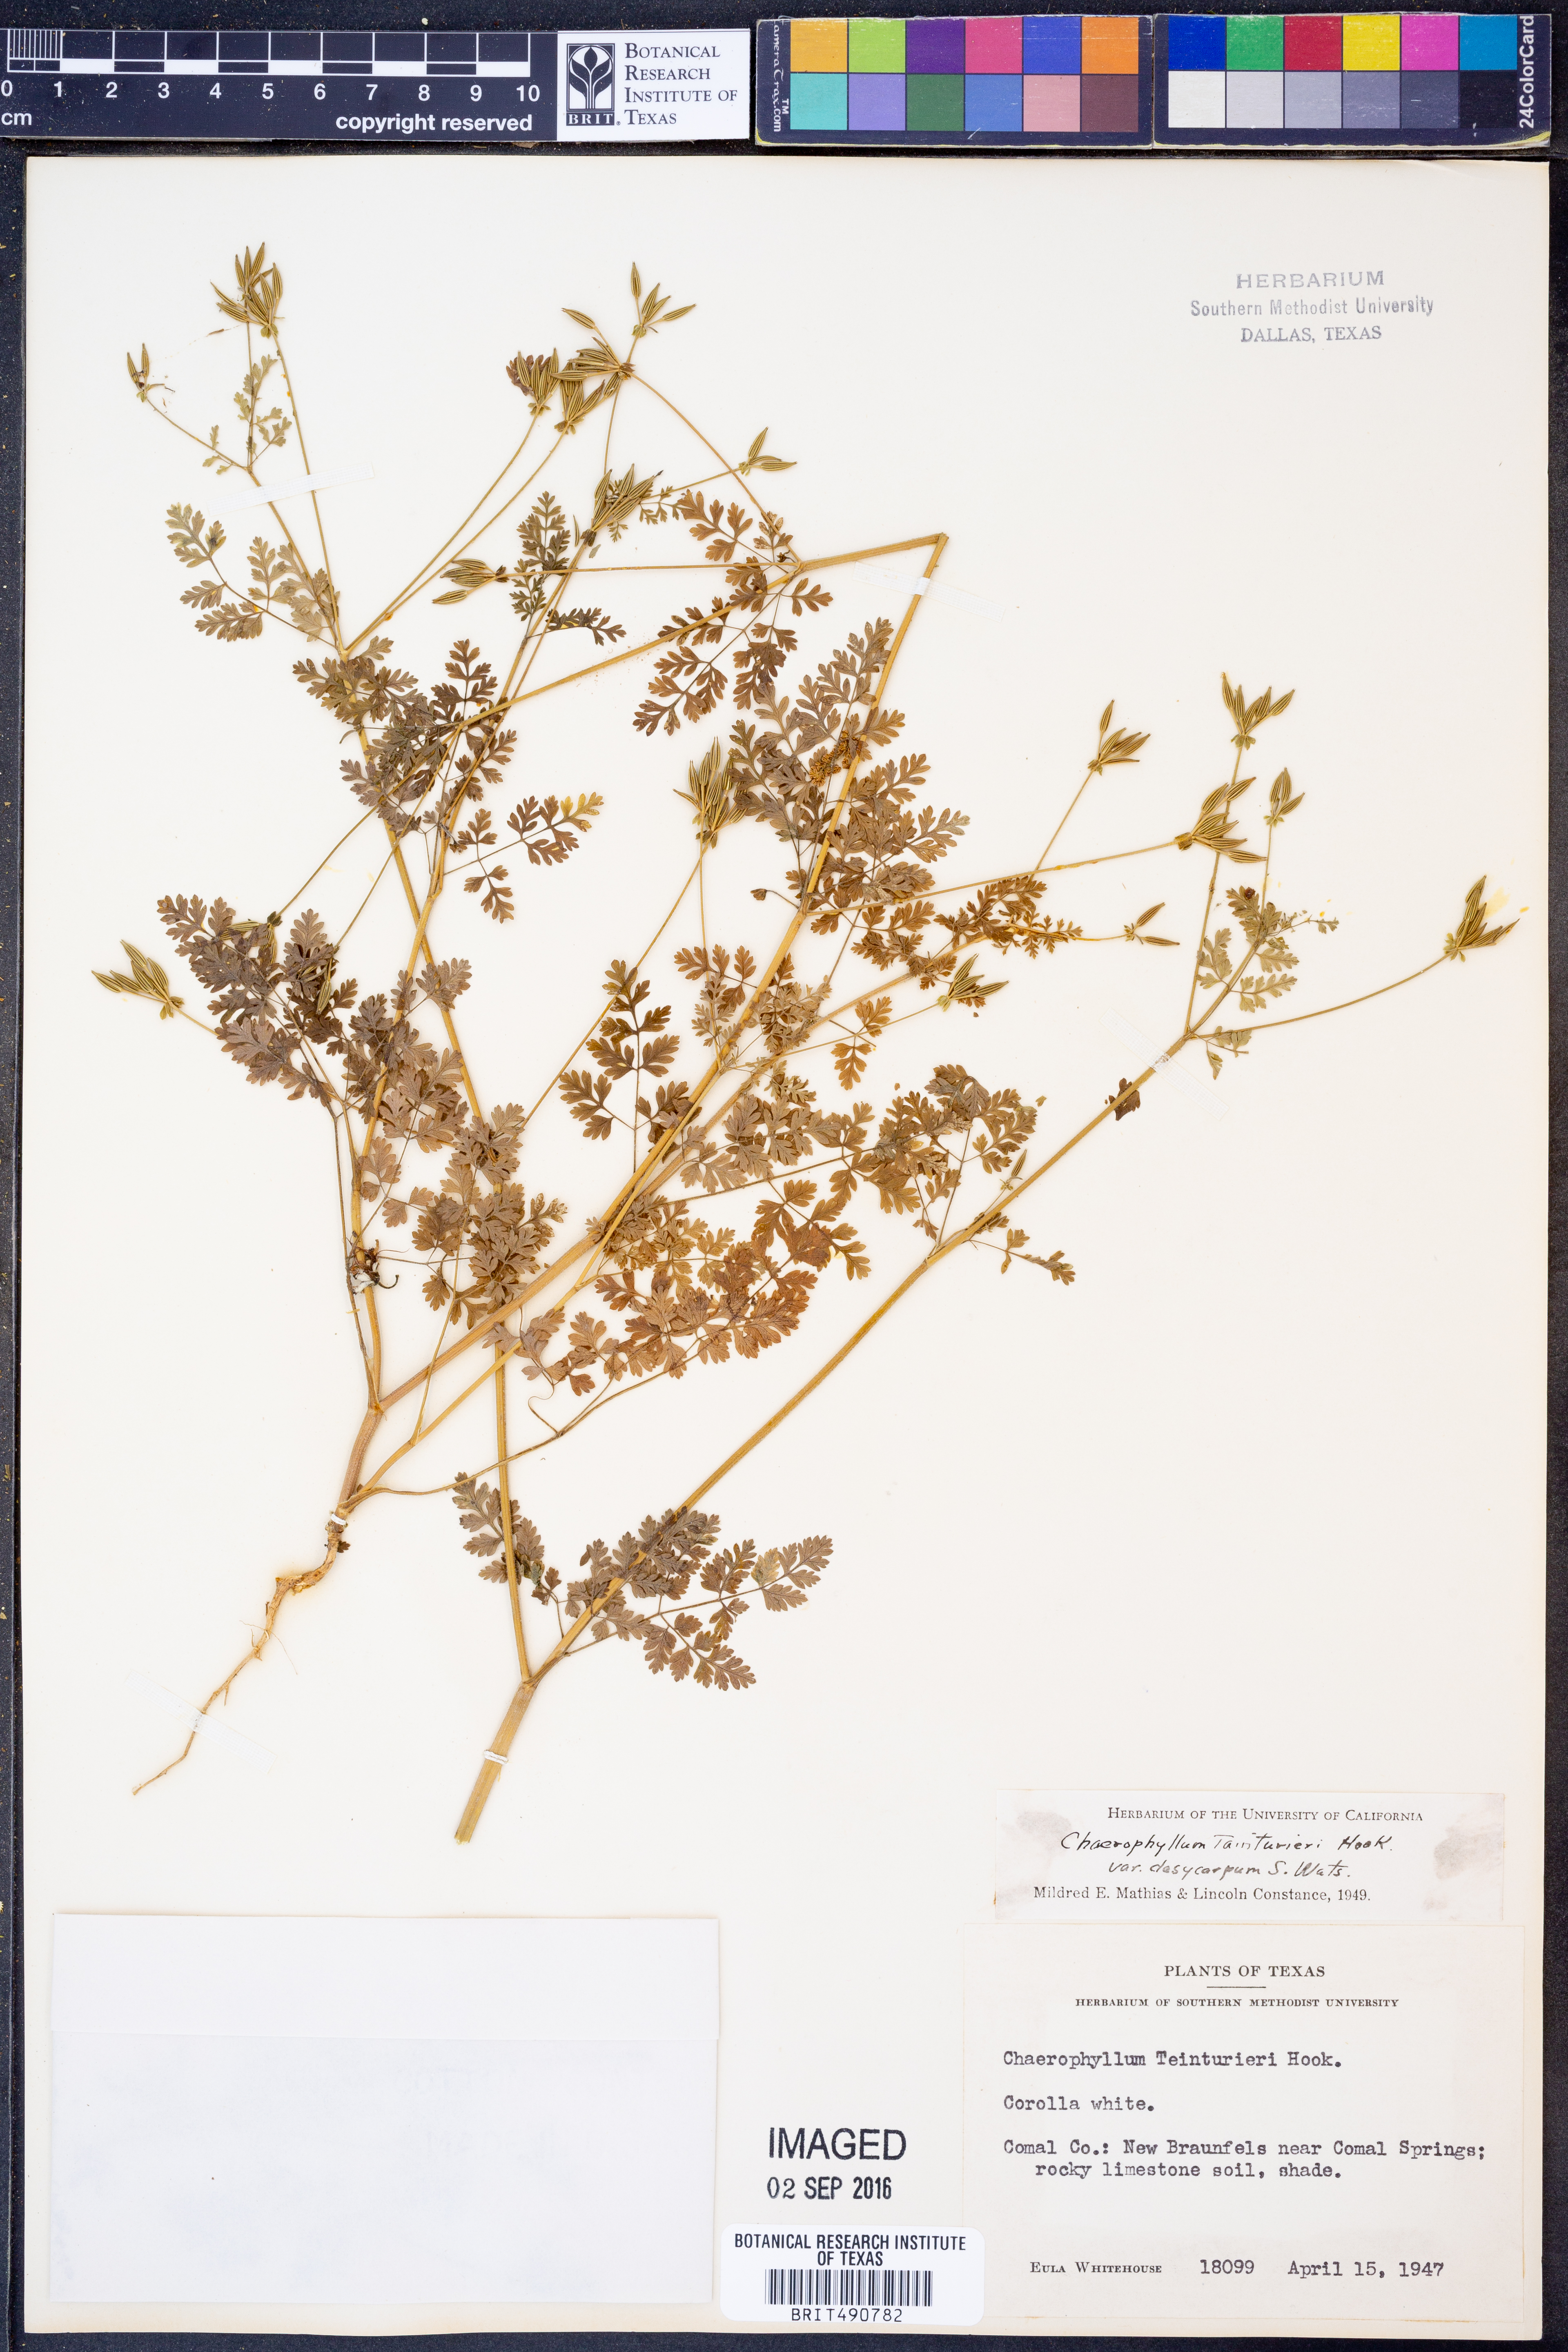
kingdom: Plantae
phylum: Tracheophyta
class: Magnoliopsida
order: Apiales
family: Apiaceae
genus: Chaerophyllum
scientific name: Chaerophyllum dasycarpum
